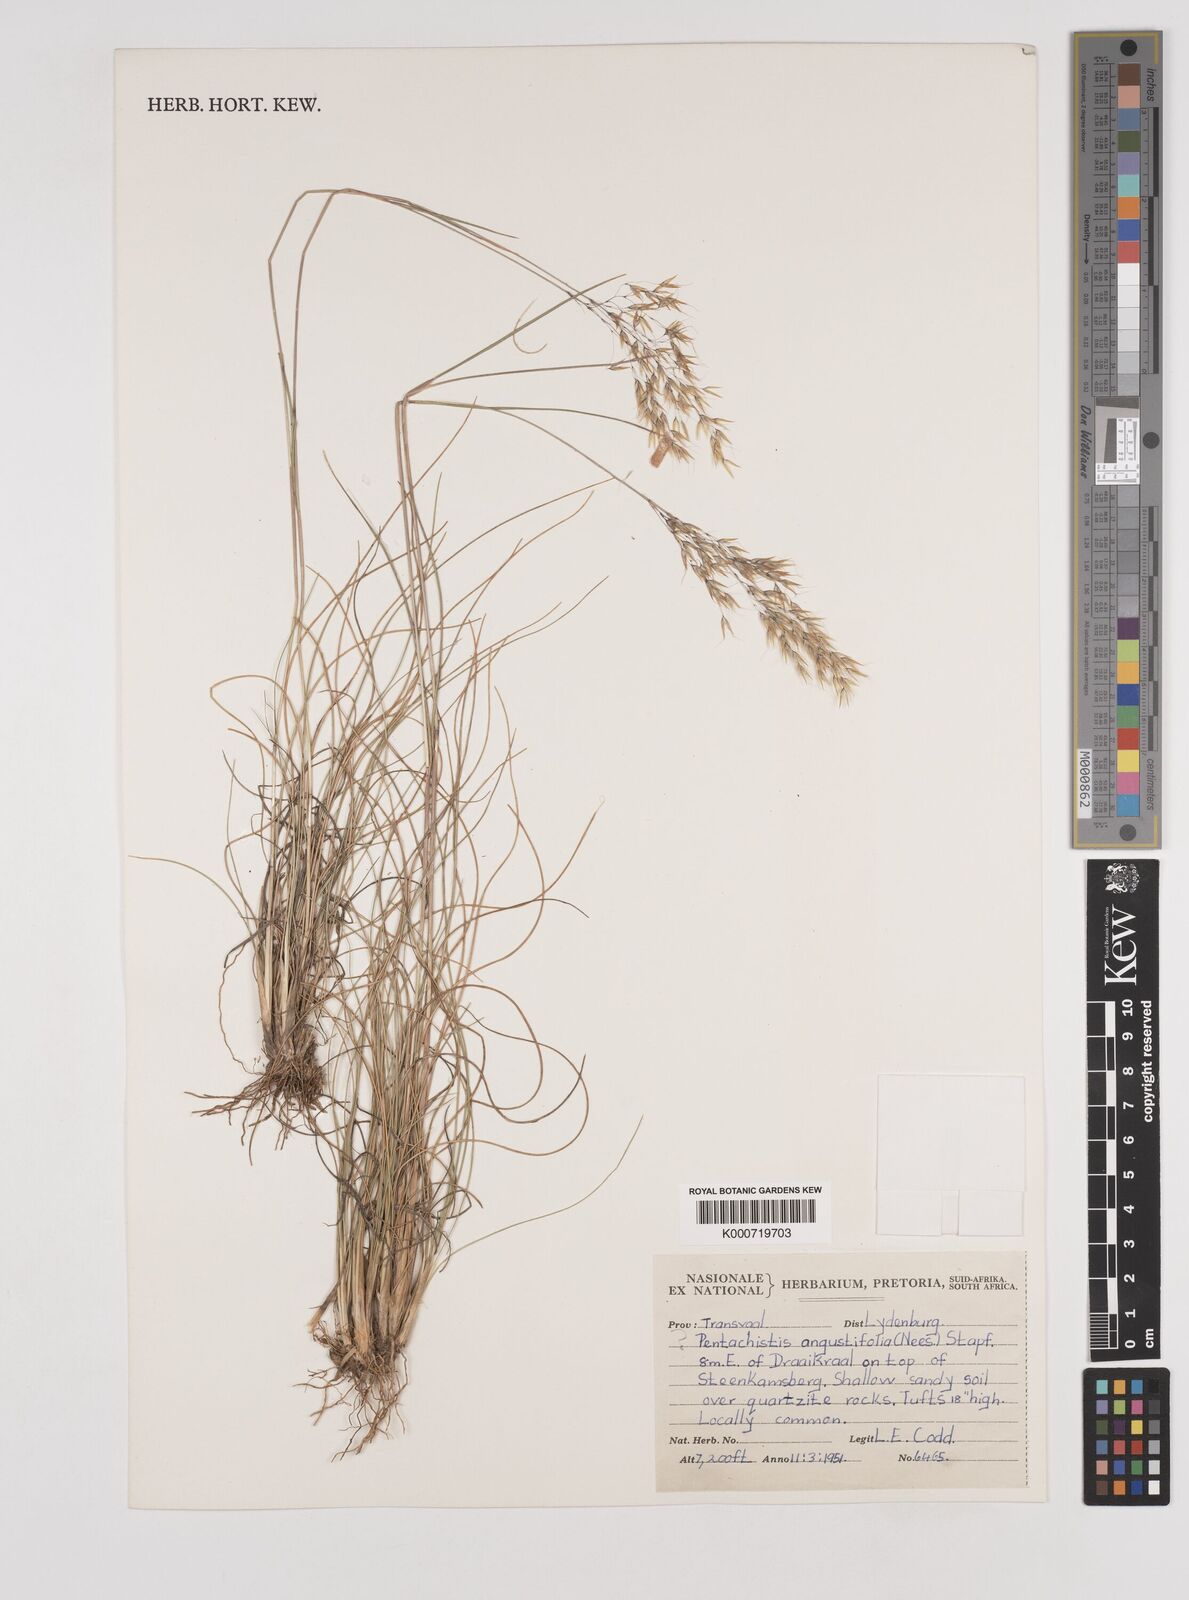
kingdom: Plantae
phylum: Tracheophyta
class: Liliopsida
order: Poales
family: Poaceae
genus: Pentameris
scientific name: Pentameris chippindalliae
